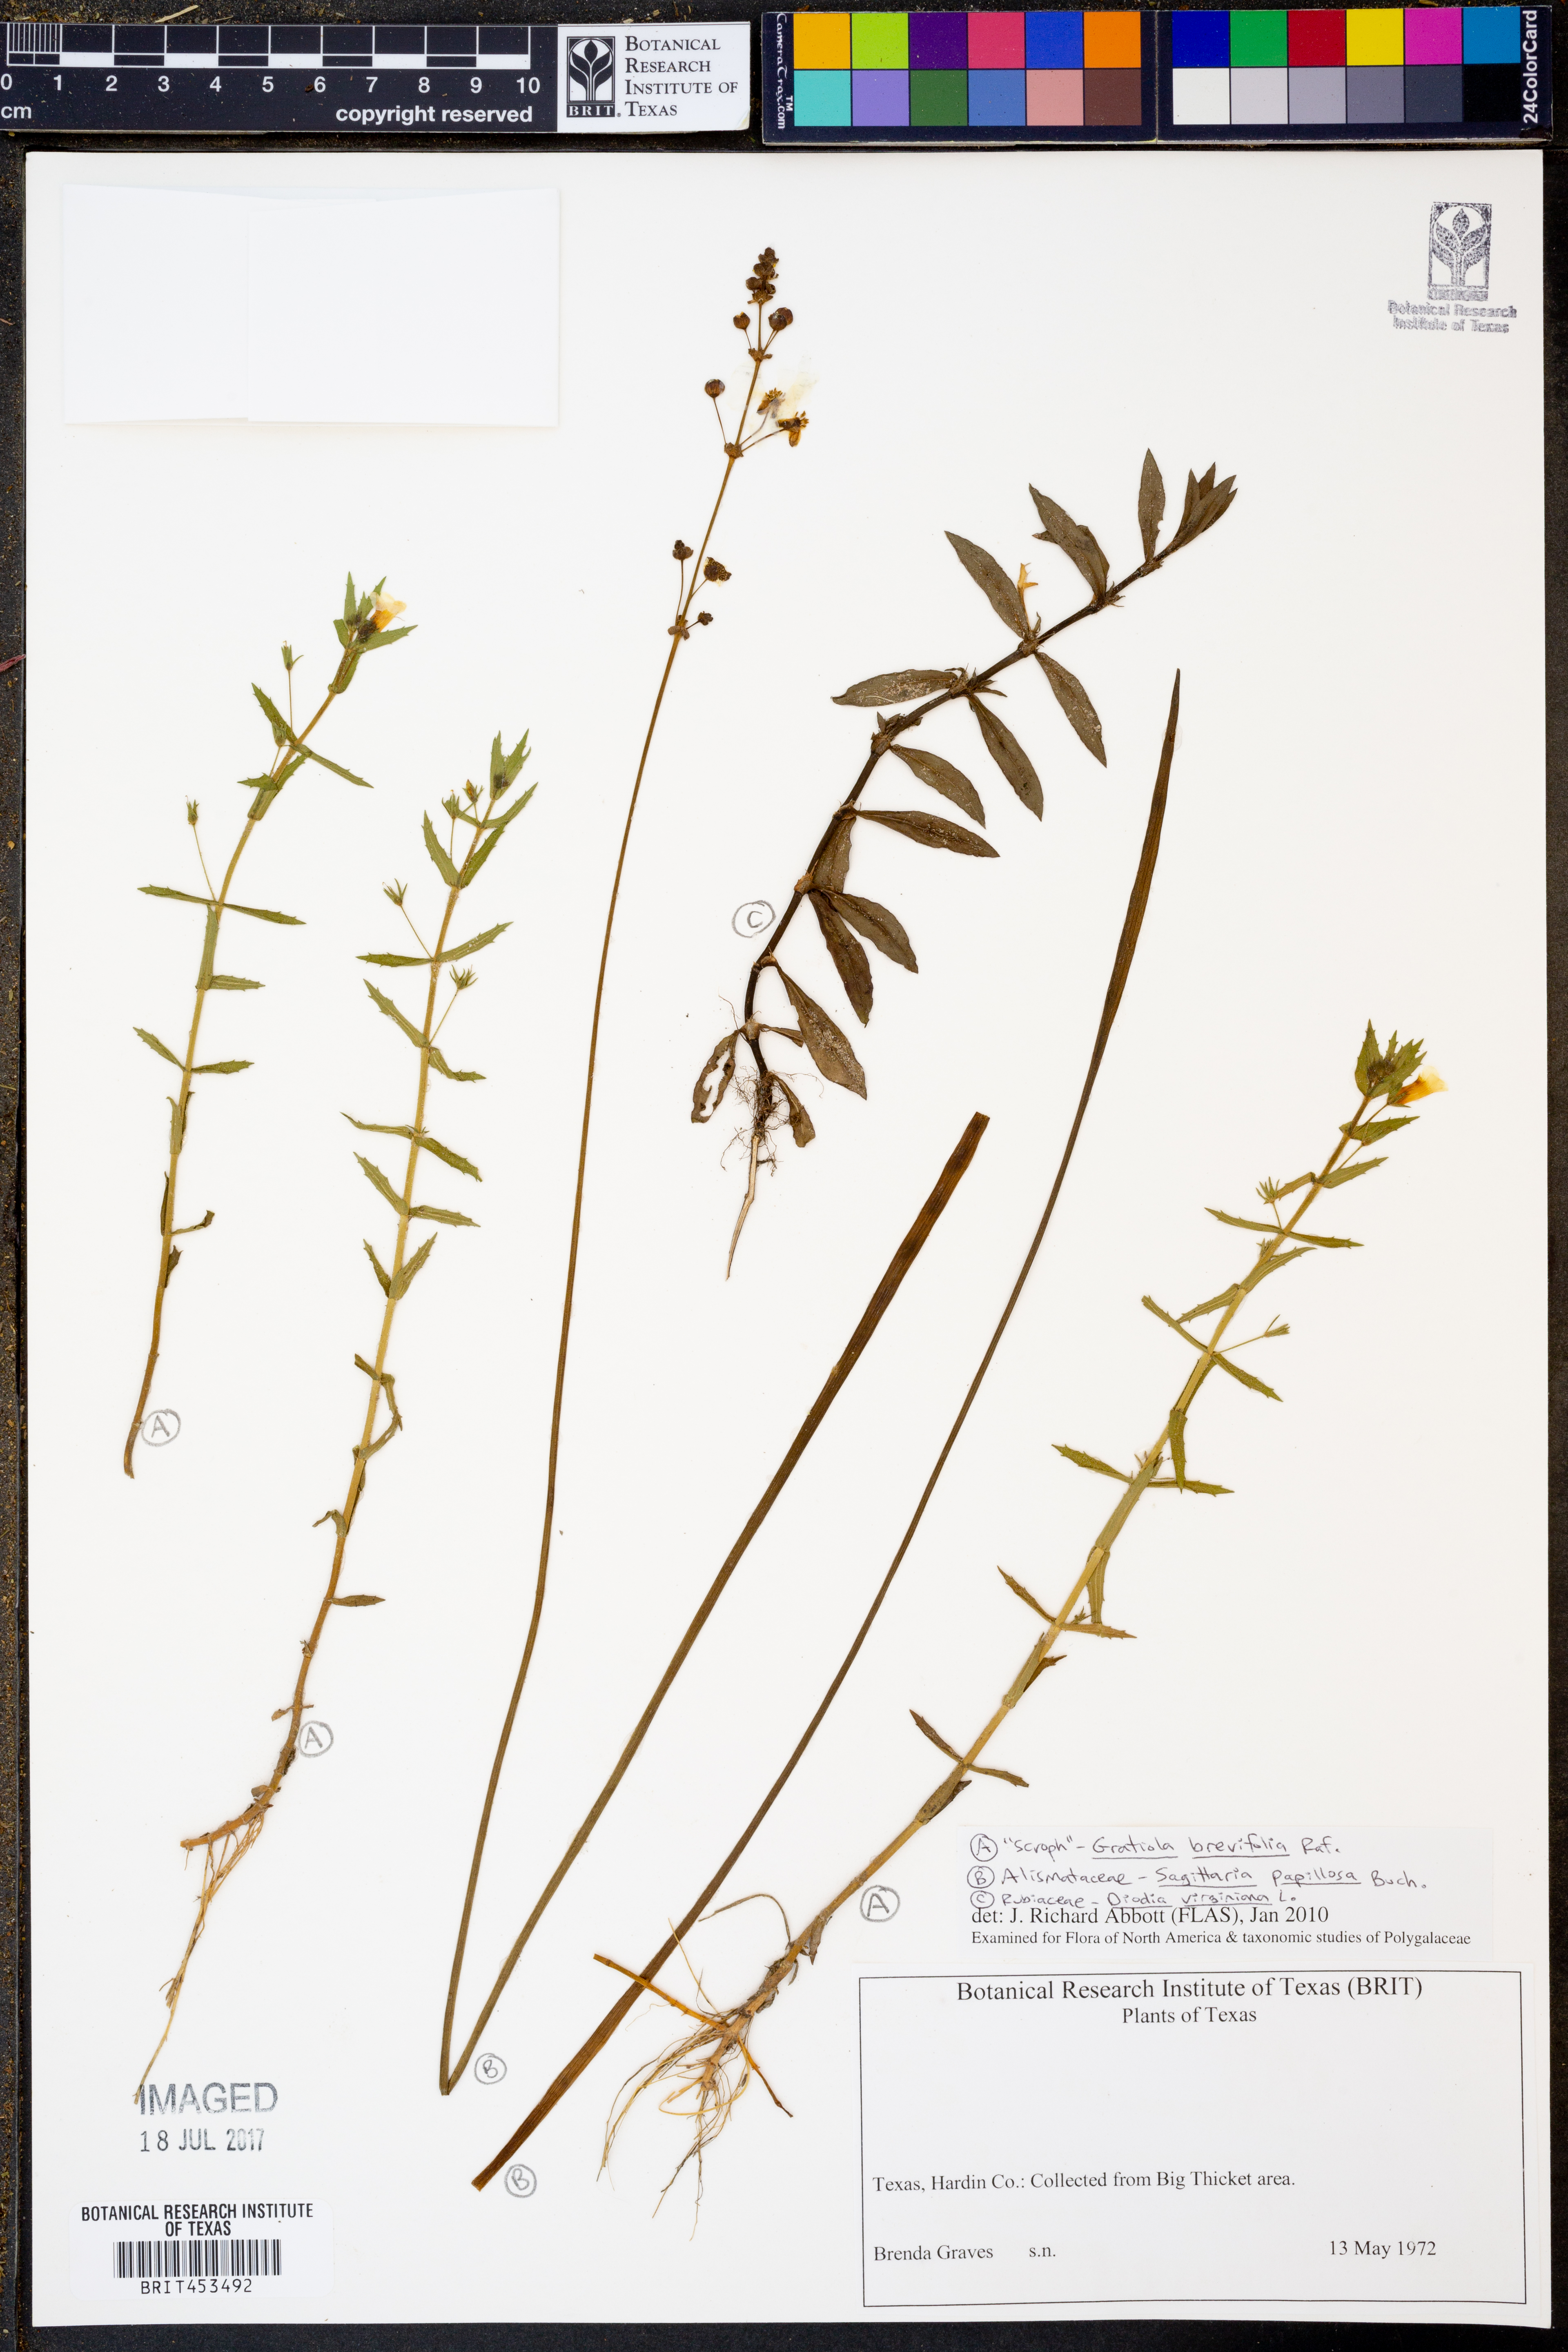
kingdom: Plantae
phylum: Tracheophyta
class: Magnoliopsida
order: Lamiales
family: Plantaginaceae
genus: Gratiola
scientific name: Gratiola brevifolia
